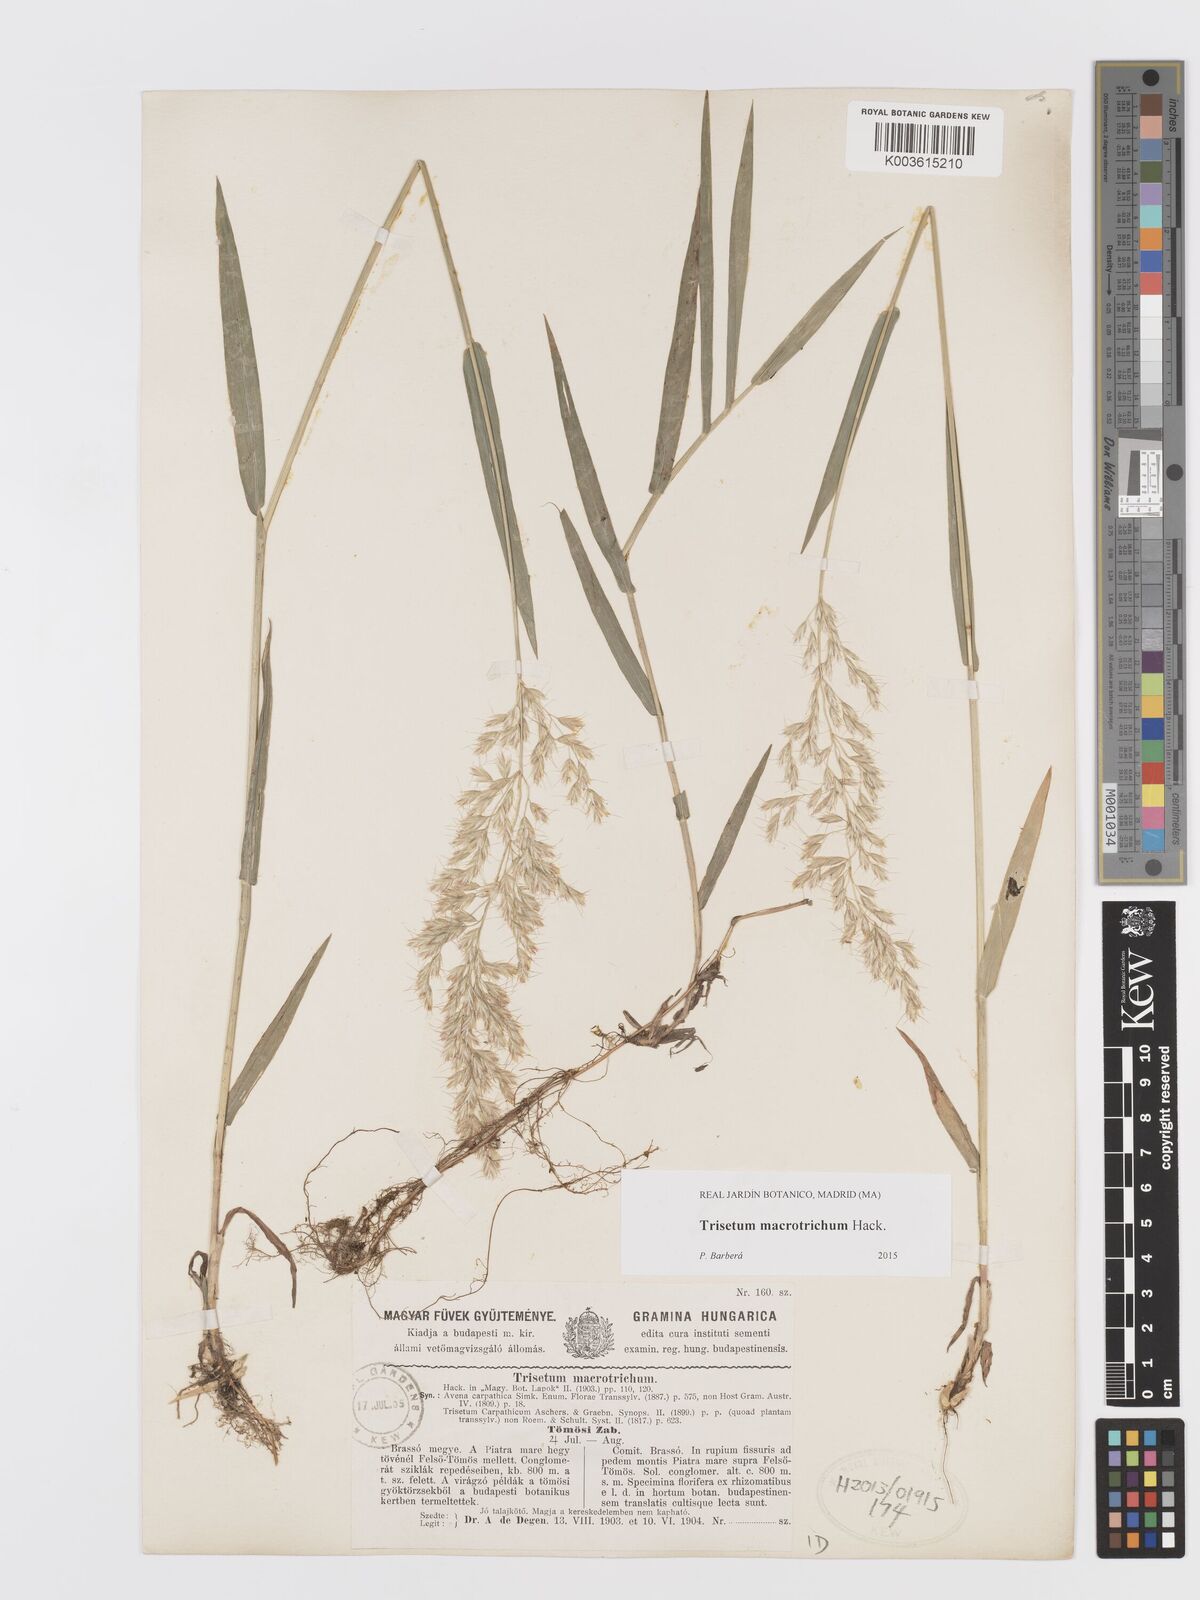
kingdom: Plantae
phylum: Tracheophyta
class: Liliopsida
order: Poales
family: Poaceae
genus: Trisetum
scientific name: Trisetum macrotrichum
